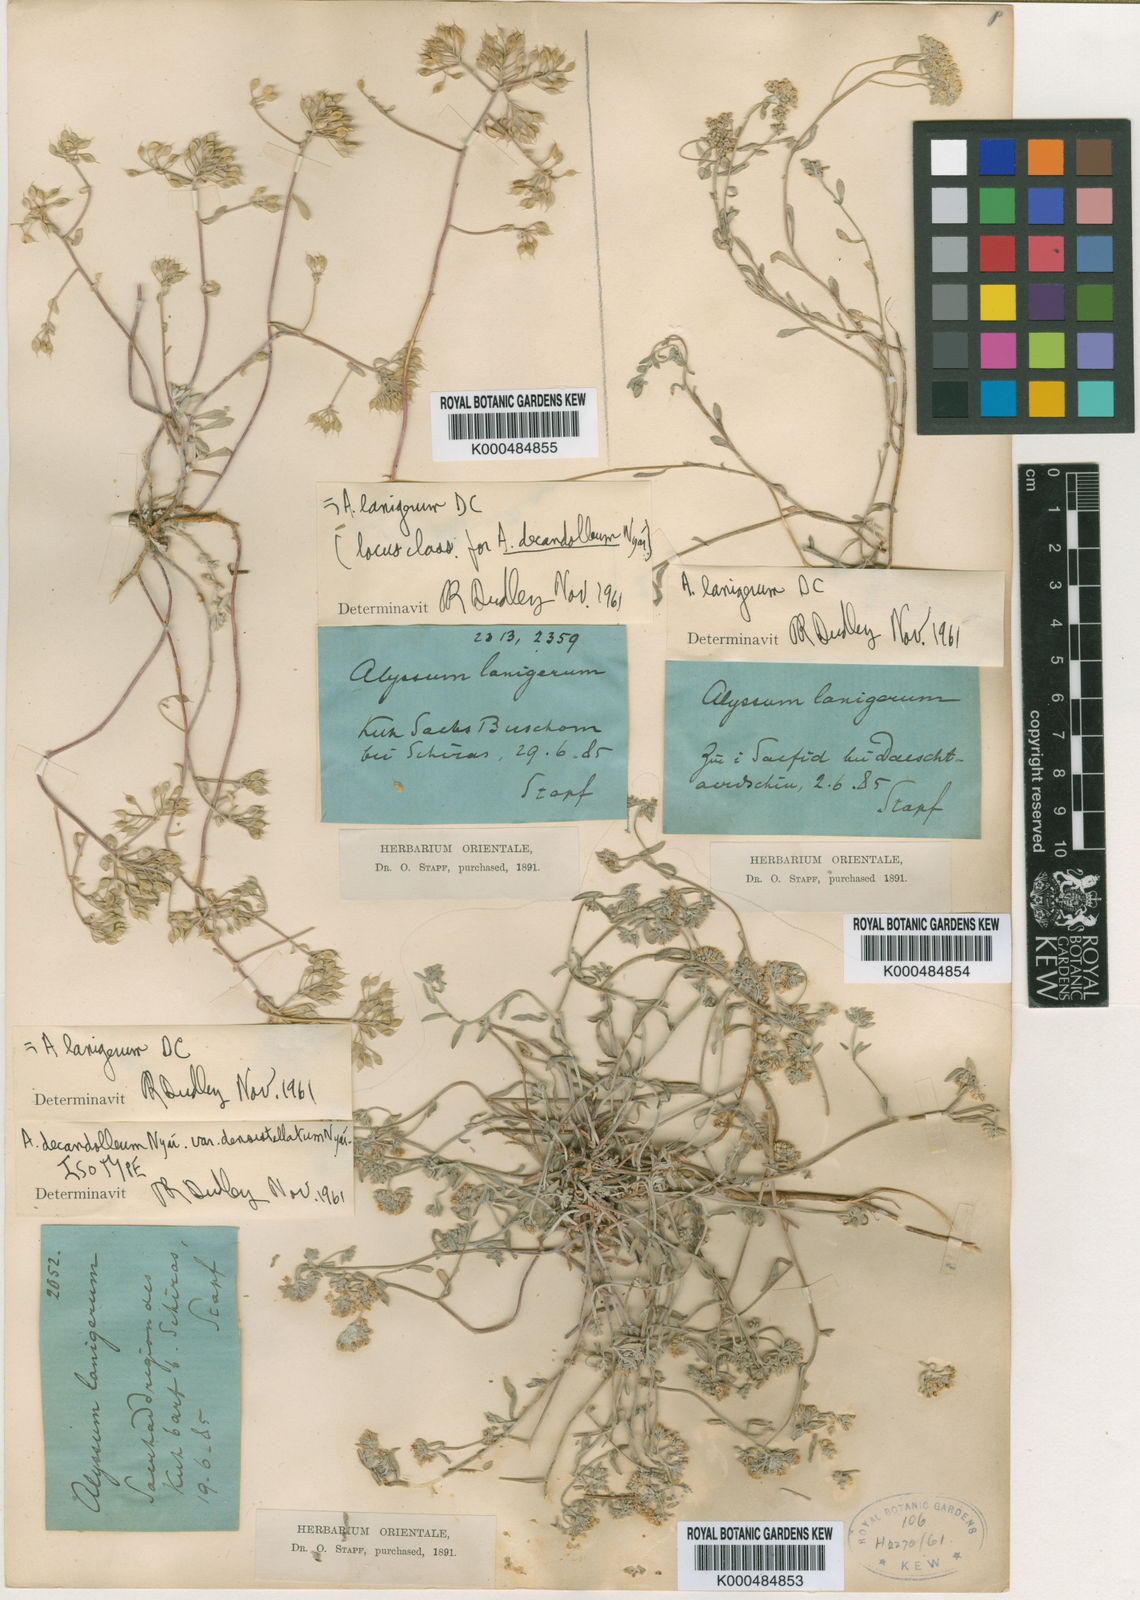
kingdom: Plantae
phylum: Tracheophyta
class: Magnoliopsida
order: Brassicales
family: Brassicaceae
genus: Odontarrhena
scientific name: Odontarrhena lanigera
